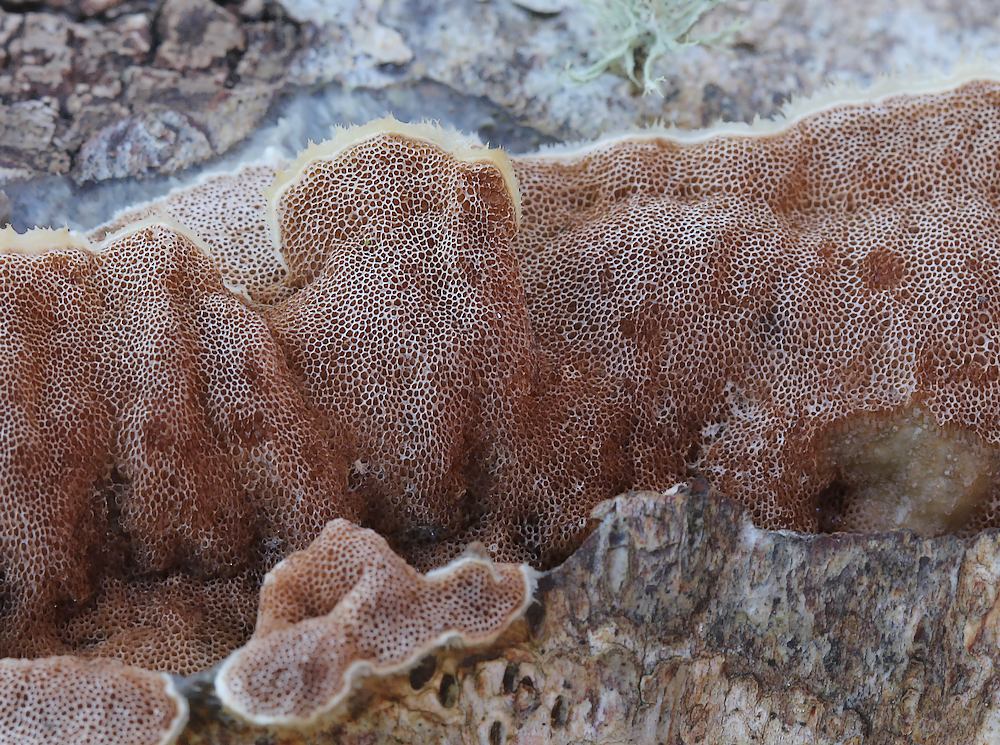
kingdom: Fungi
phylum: Basidiomycota
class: Agaricomycetes
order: Polyporales
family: Irpicaceae
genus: Vitreoporus
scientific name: Vitreoporus dichrous
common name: tofarvet foldporesvamp
